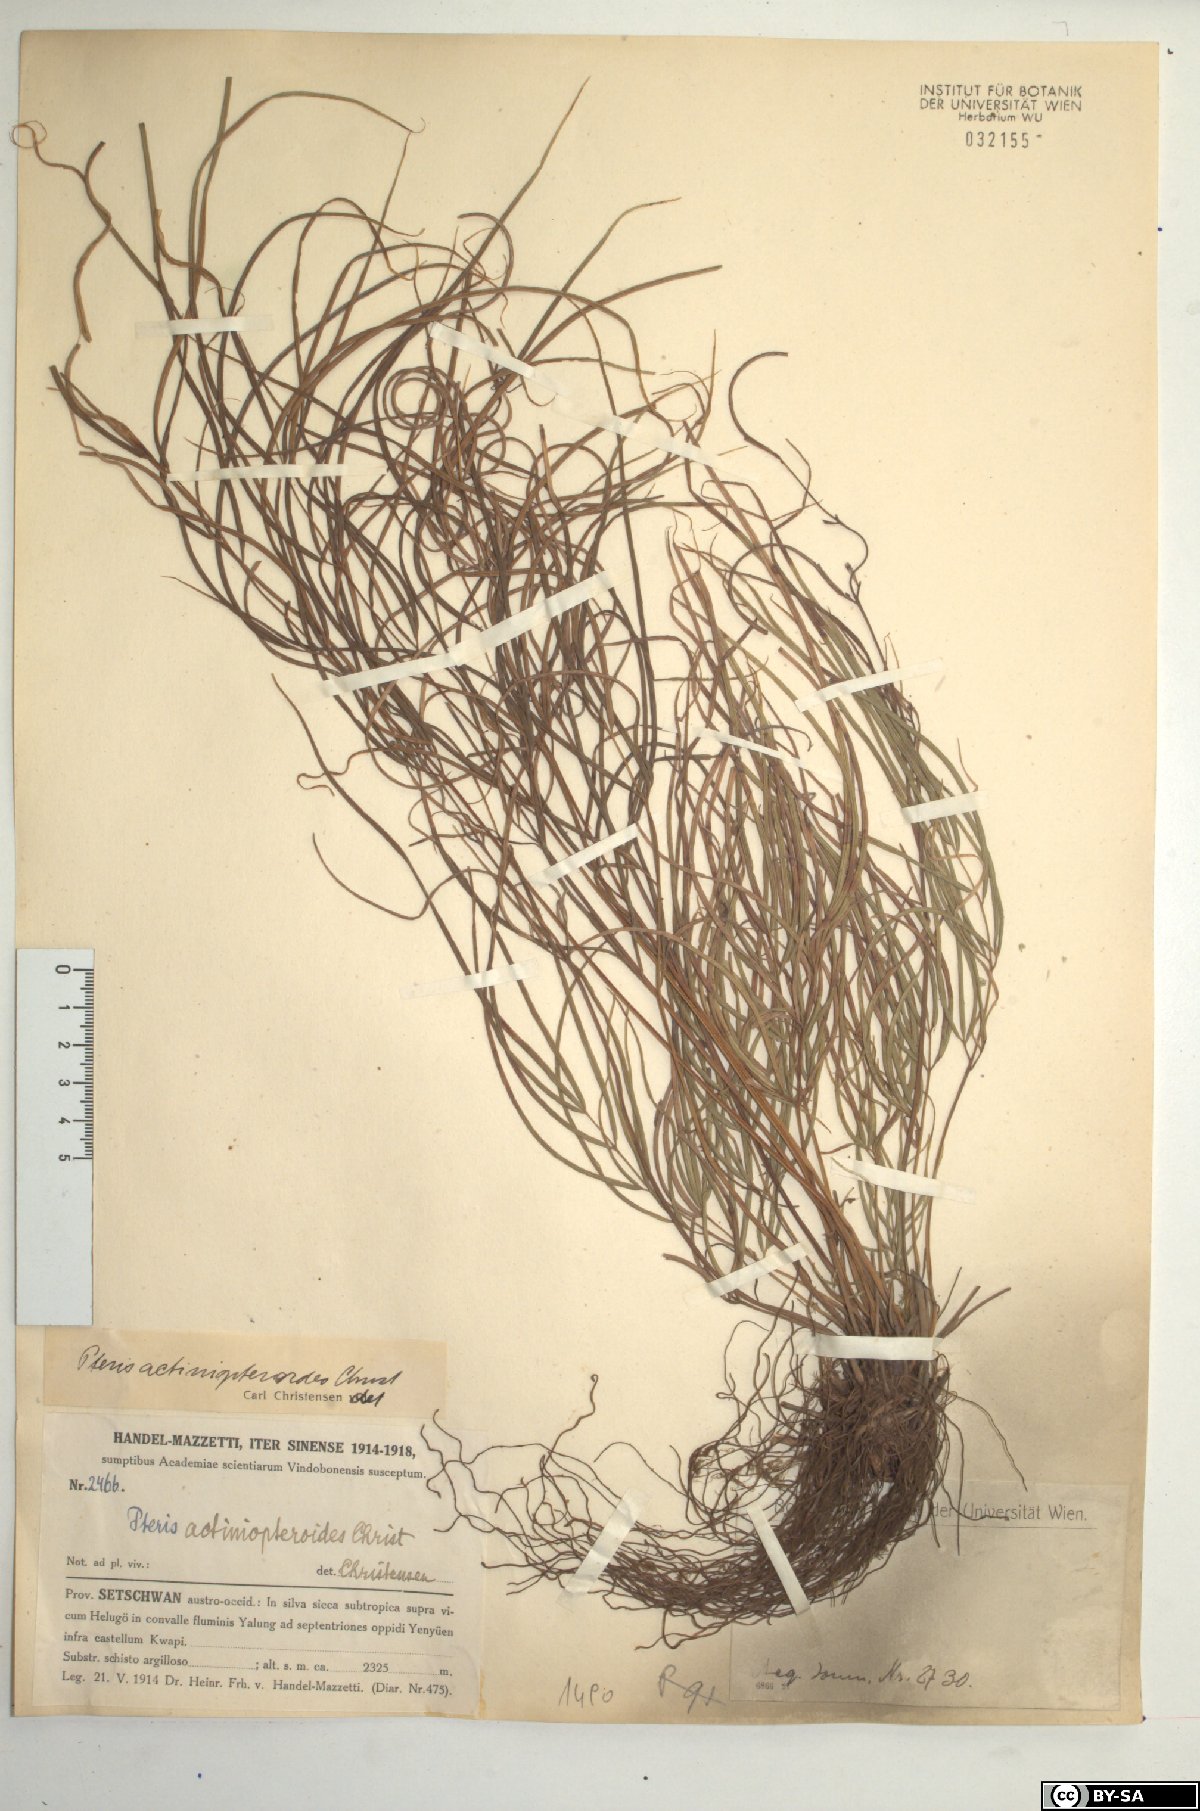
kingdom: Plantae
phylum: Tracheophyta
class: Polypodiopsida
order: Polypodiales
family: Pteridaceae
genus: Pteris
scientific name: Pteris actiniopteroides
